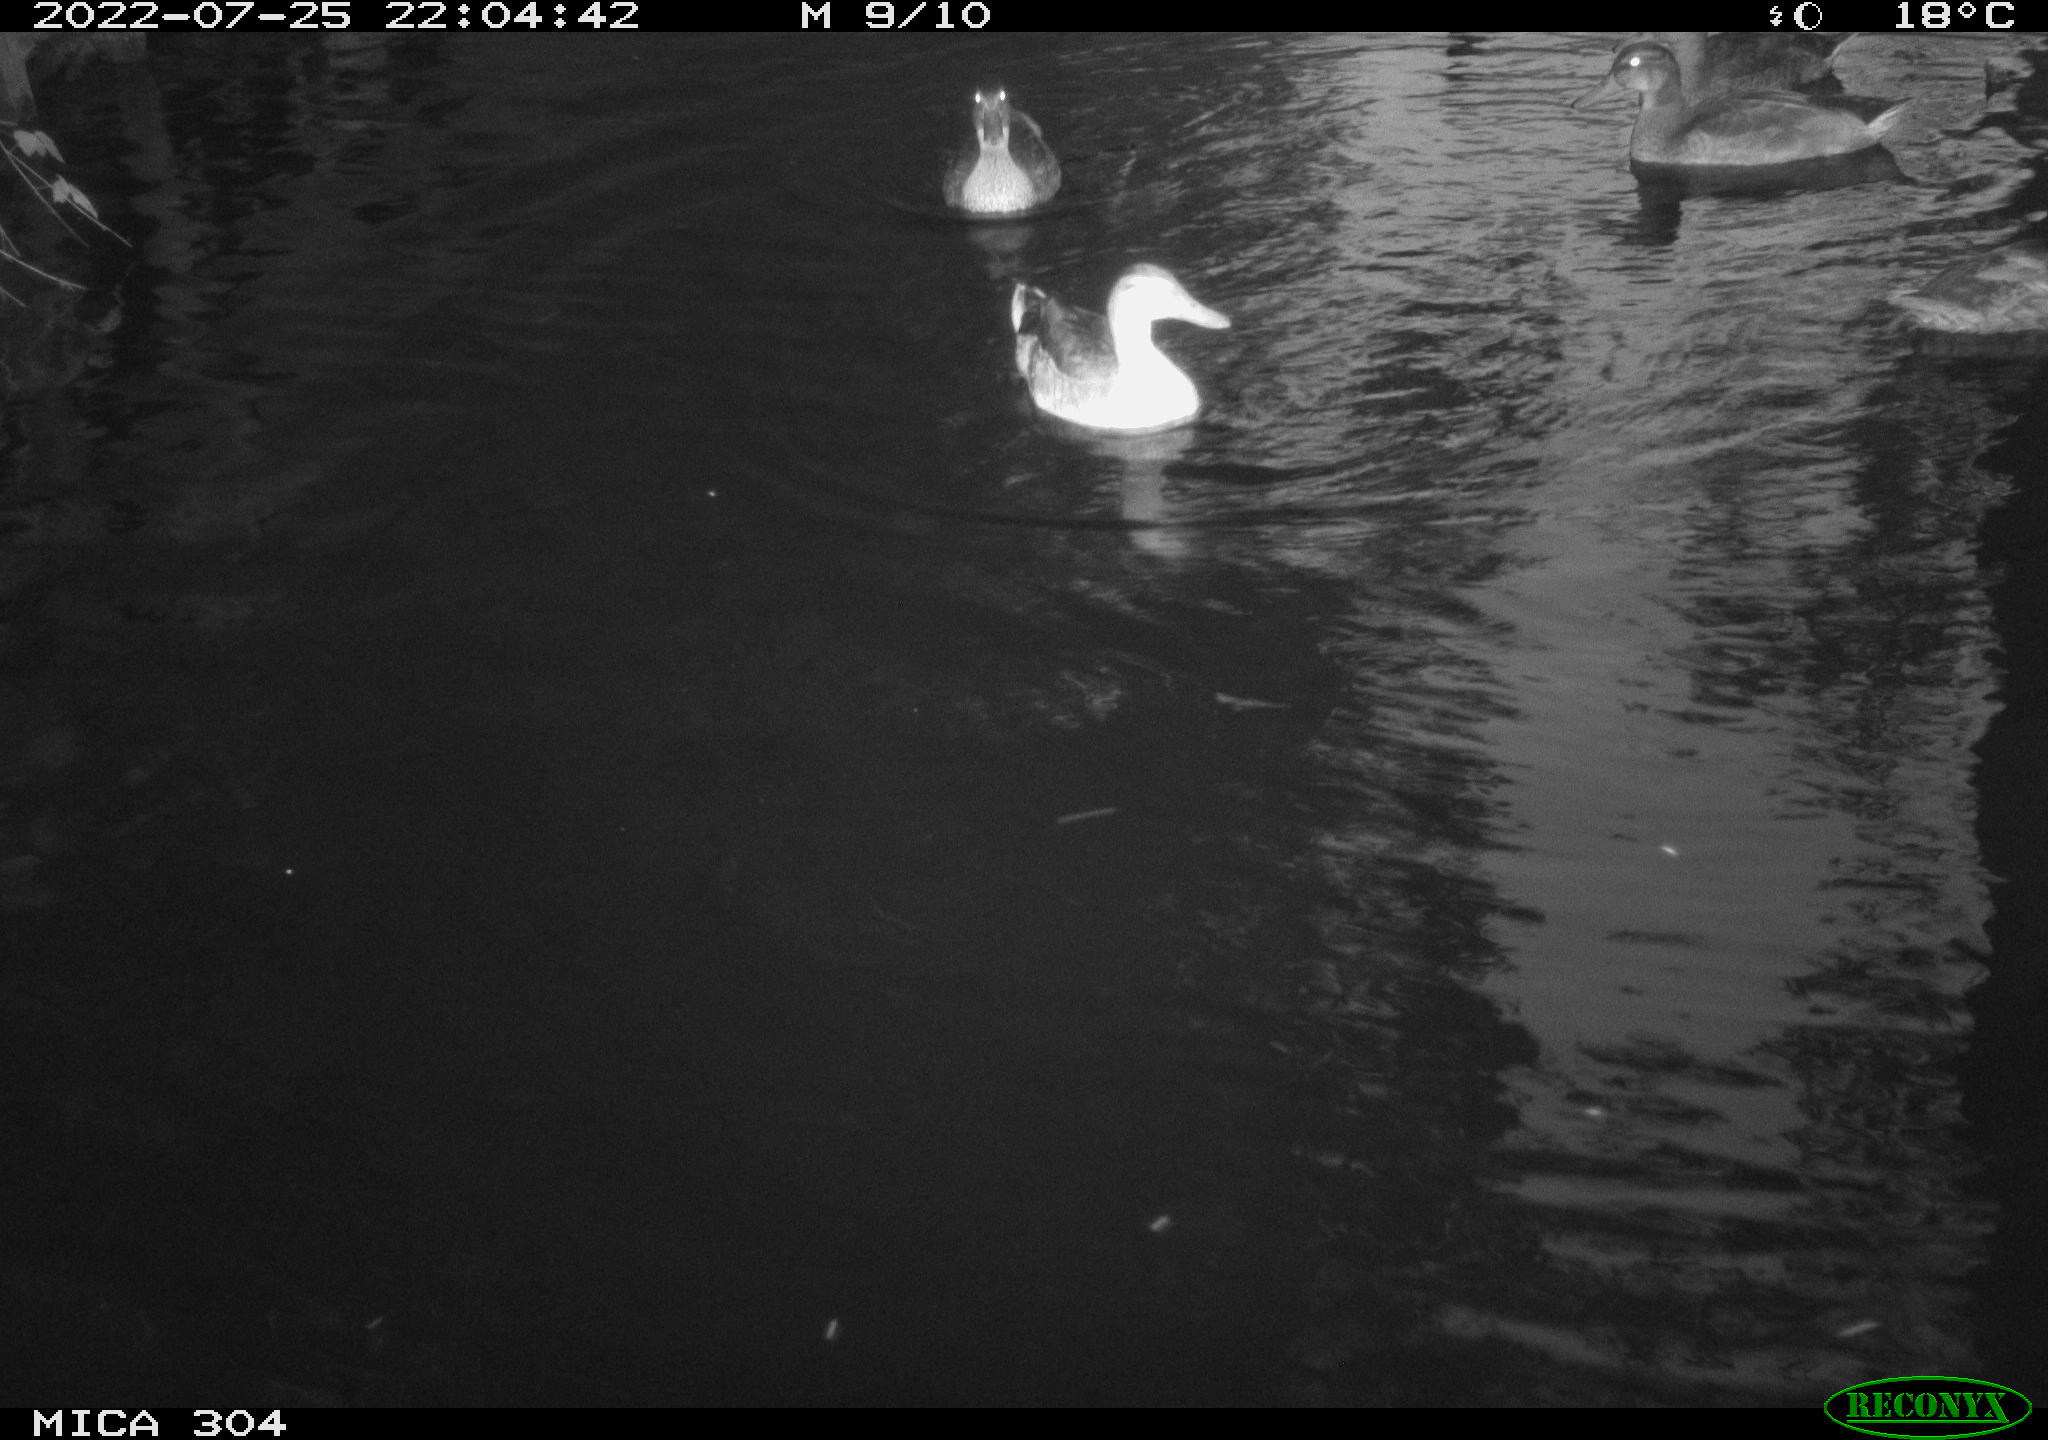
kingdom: Animalia
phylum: Chordata
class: Aves
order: Anseriformes
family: Anatidae
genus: Anas
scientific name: Anas platyrhynchos
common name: Mallard
